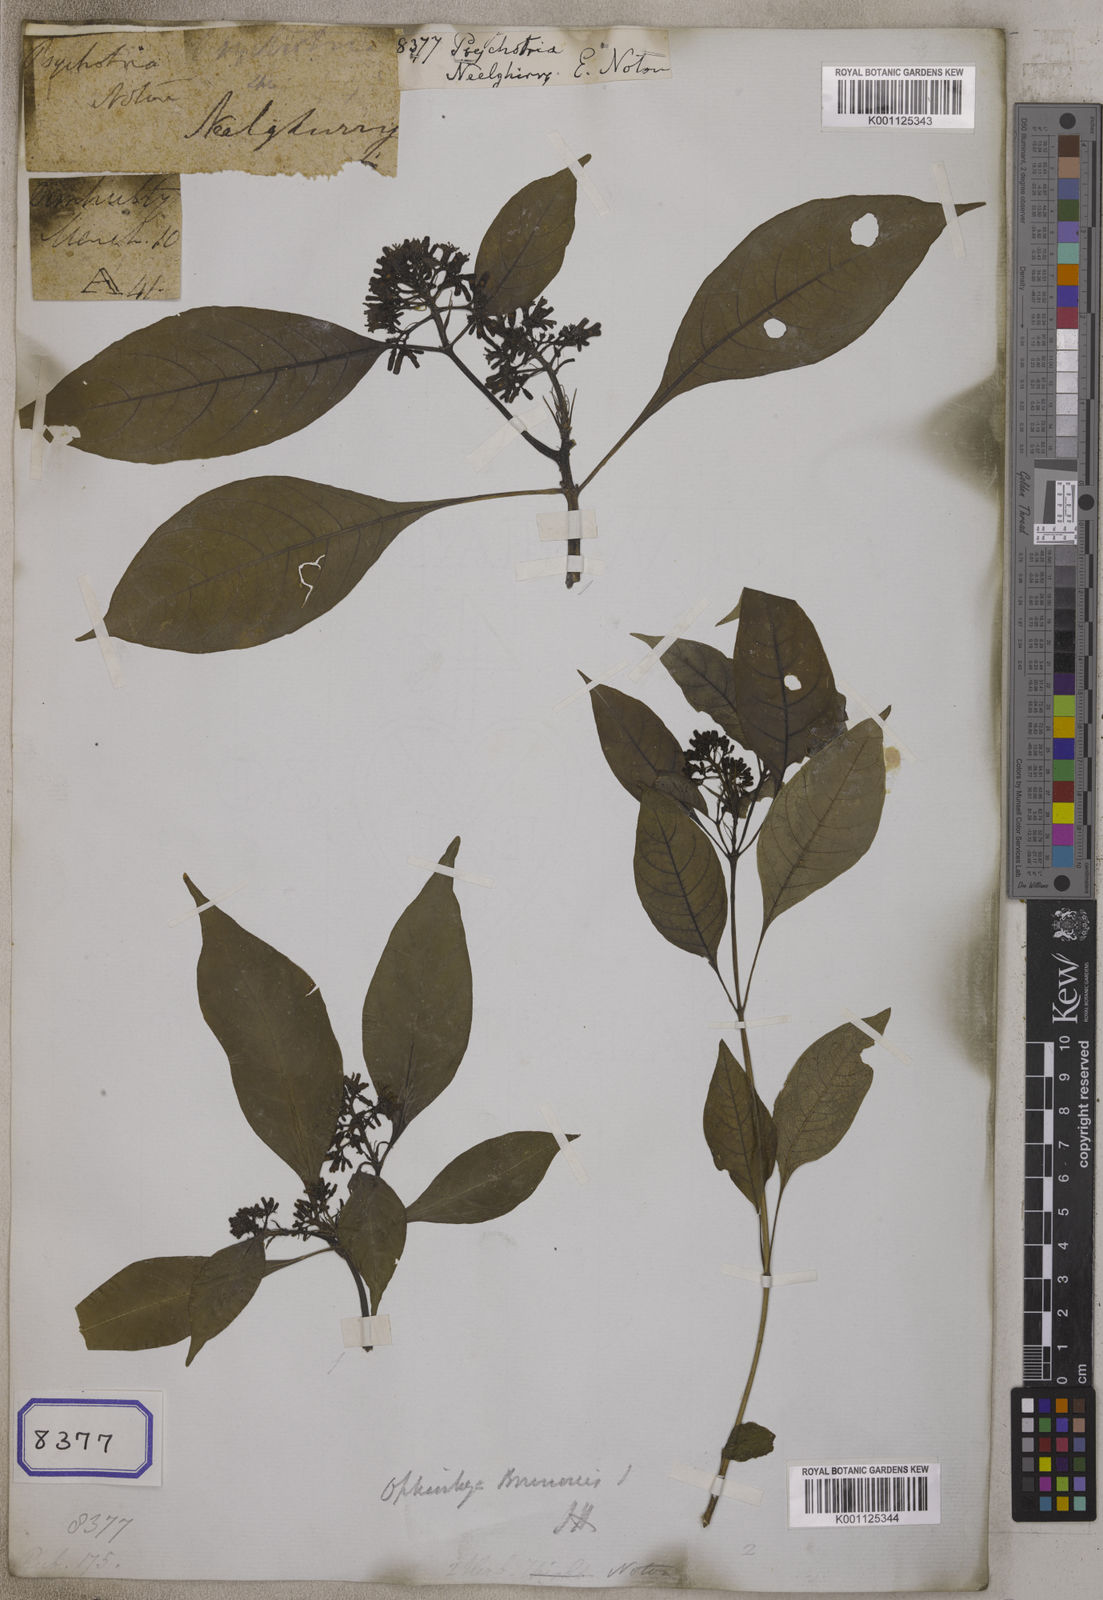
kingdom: Plantae
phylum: Tracheophyta
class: Magnoliopsida
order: Gentianales
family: Rubiaceae
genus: Psychotria
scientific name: Psychotria
